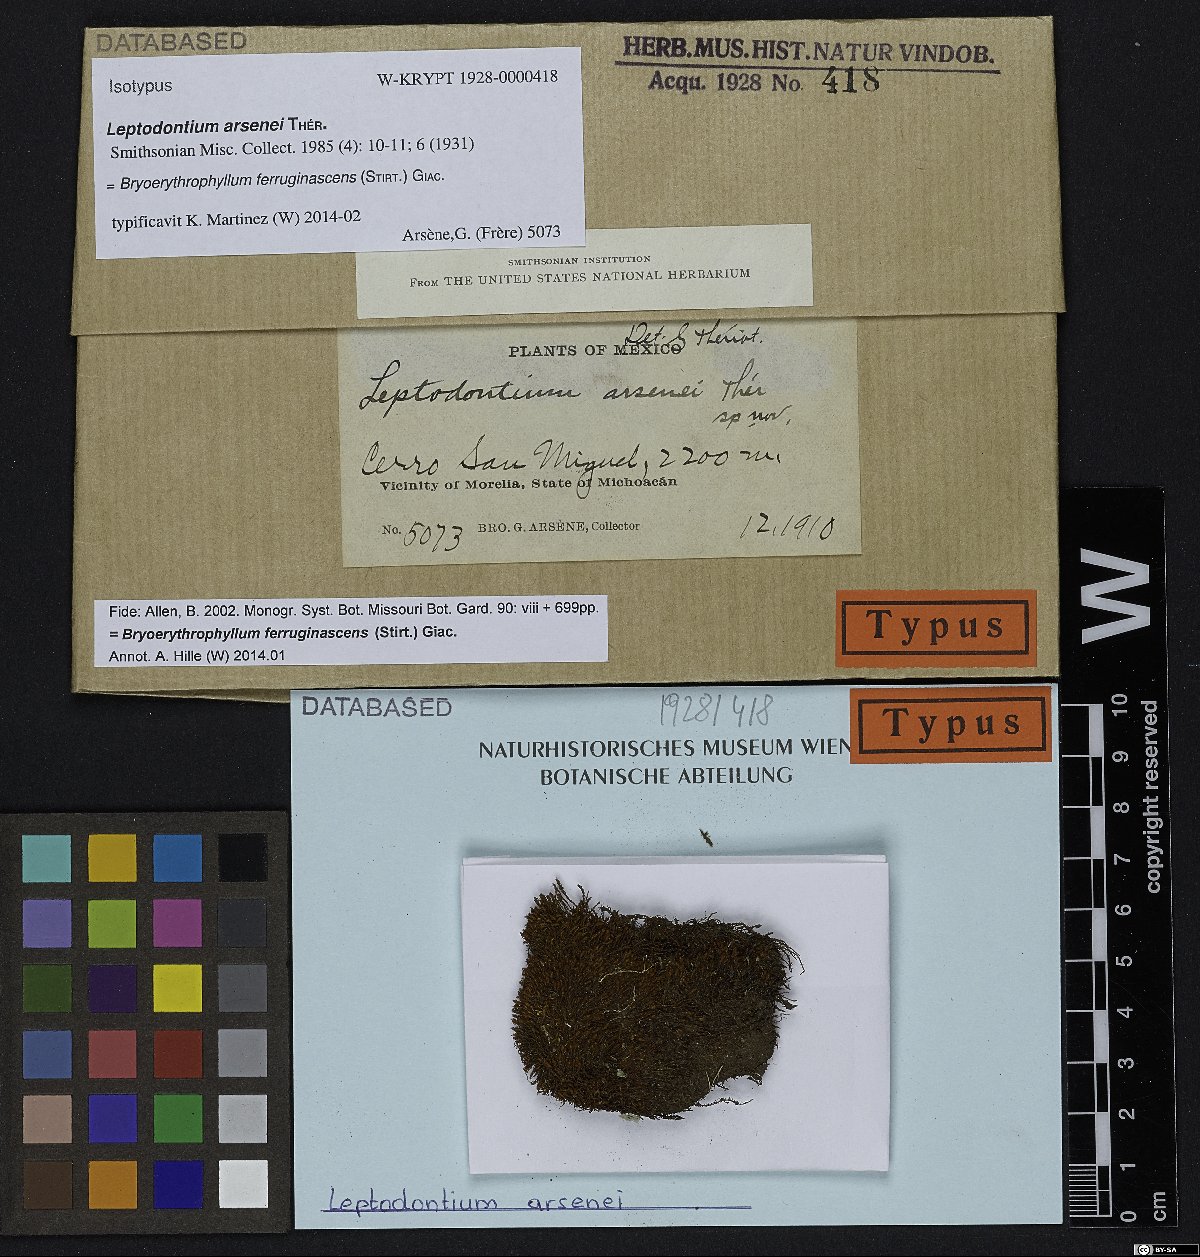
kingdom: Plantae
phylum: Bryophyta
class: Bryopsida
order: Pottiales
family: Pottiaceae
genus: Bryoerythrophyllum
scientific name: Bryoerythrophyllum ferruginascens
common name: Rufous beard-moss
